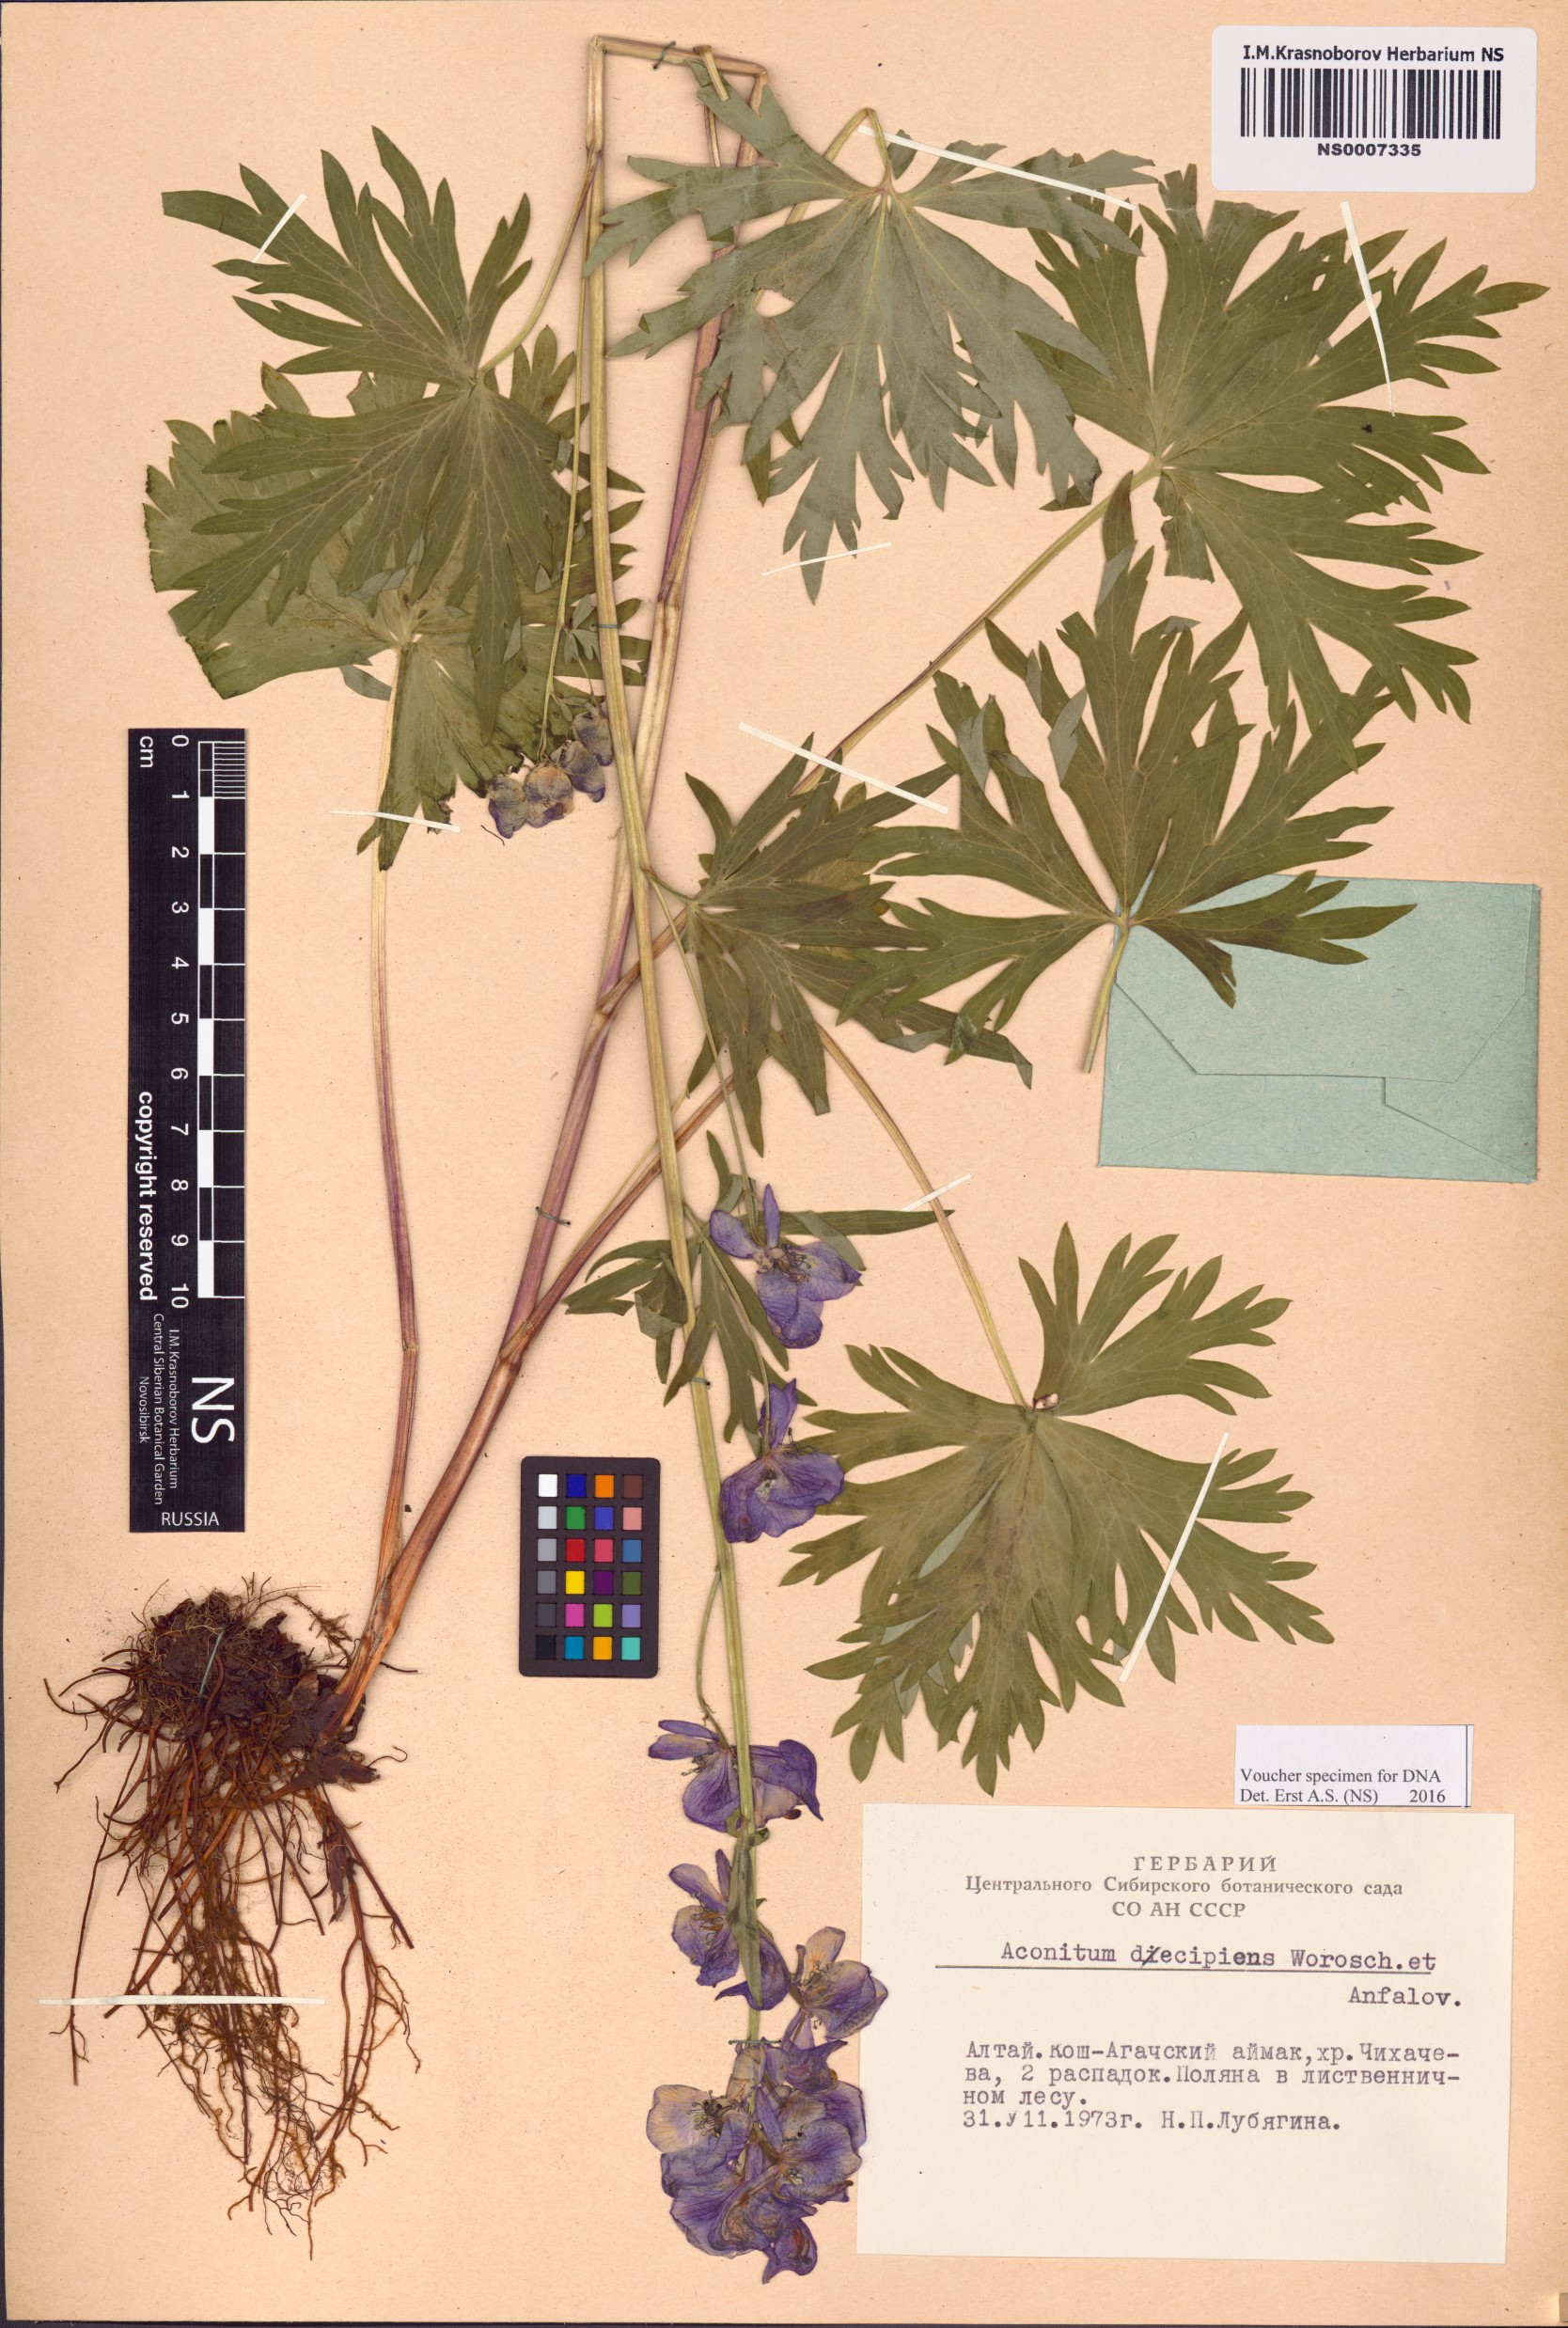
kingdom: Plantae
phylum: Tracheophyta
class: Magnoliopsida
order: Ranunculales
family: Ranunculaceae
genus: Aconitum
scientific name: Aconitum decipiens
